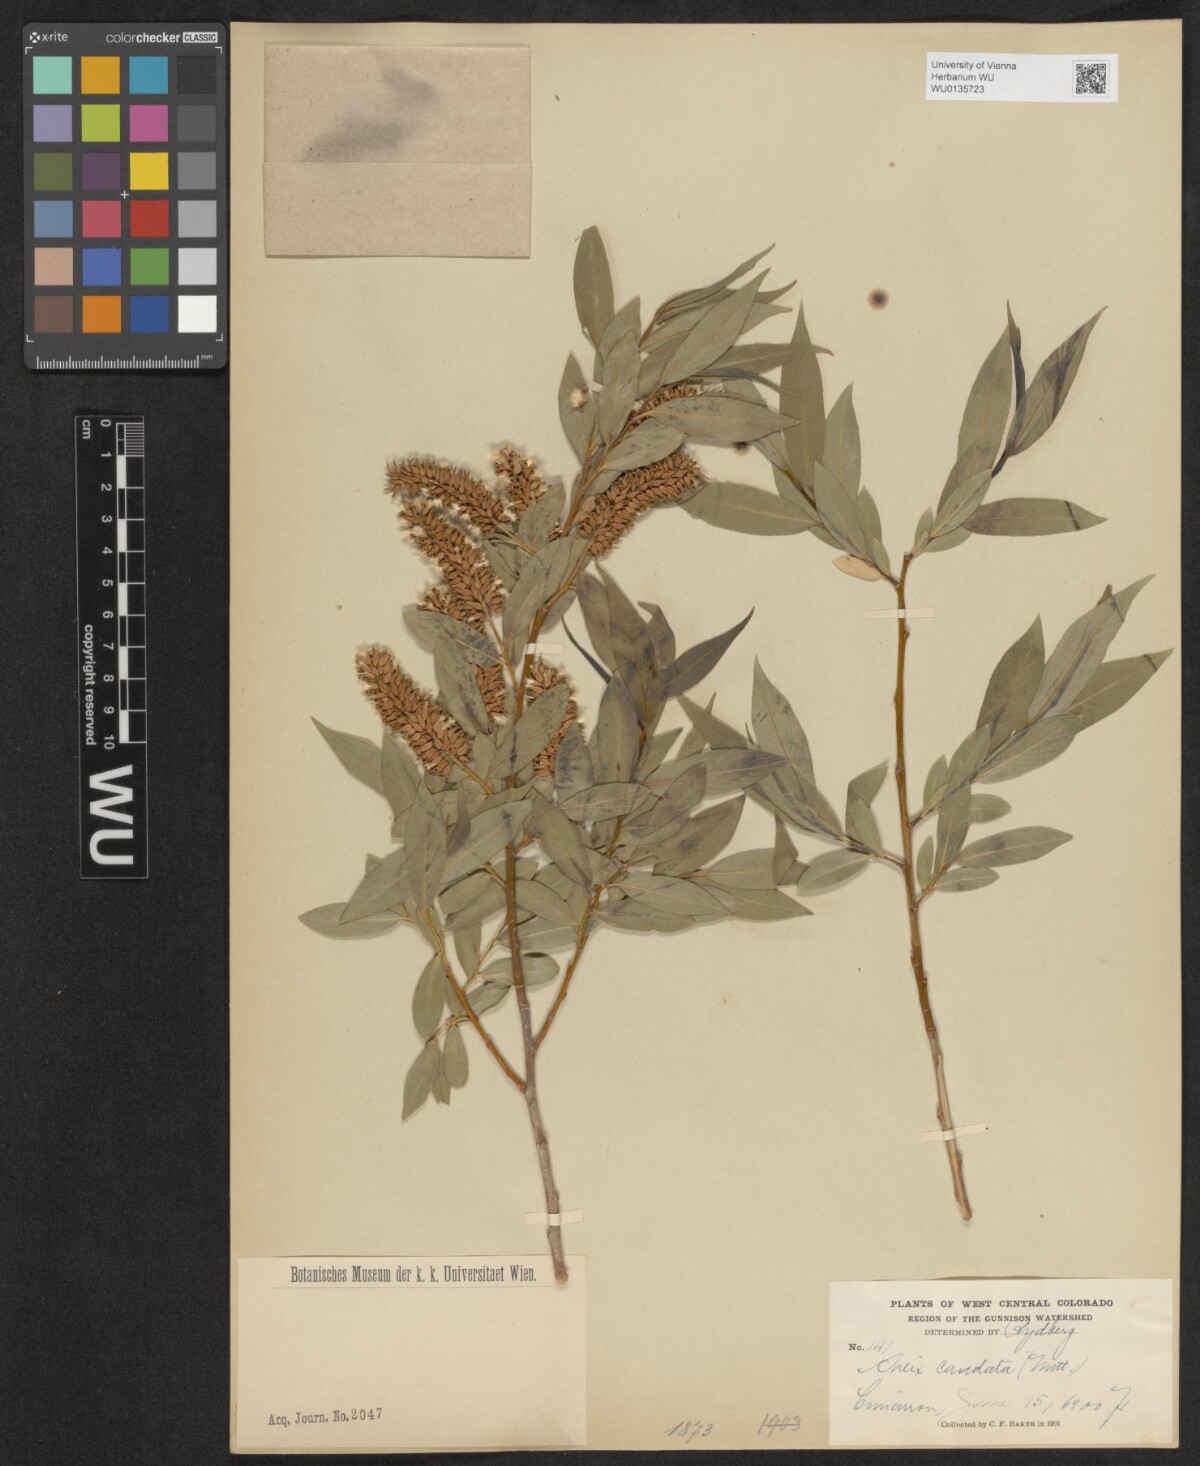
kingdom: Plantae
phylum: Tracheophyta
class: Magnoliopsida
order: Malpighiales
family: Salicaceae
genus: Salix
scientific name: Salix lucida
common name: Shining willow
